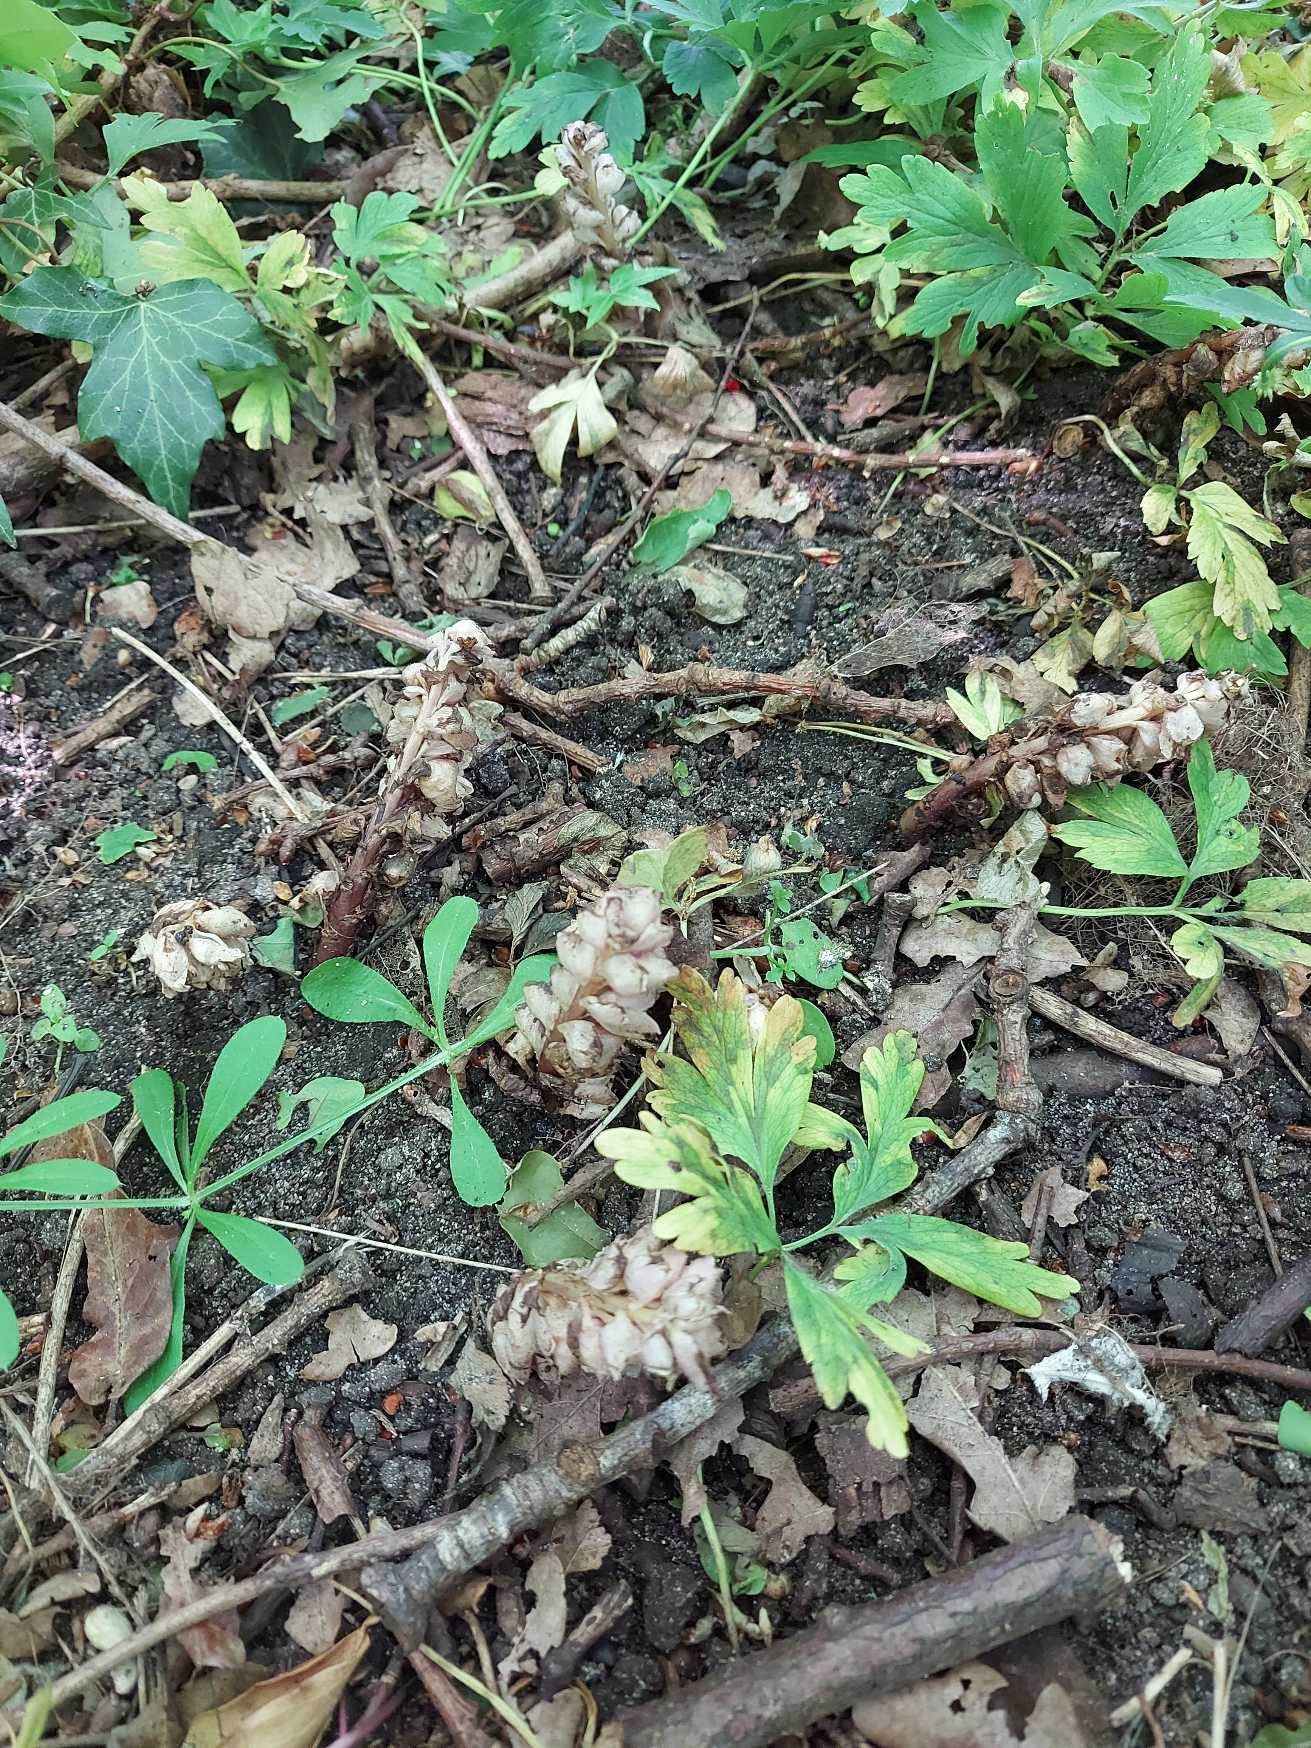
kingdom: Plantae
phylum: Tracheophyta
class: Magnoliopsida
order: Lamiales
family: Orobanchaceae
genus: Lathraea
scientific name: Lathraea squamaria
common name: Skælrod
